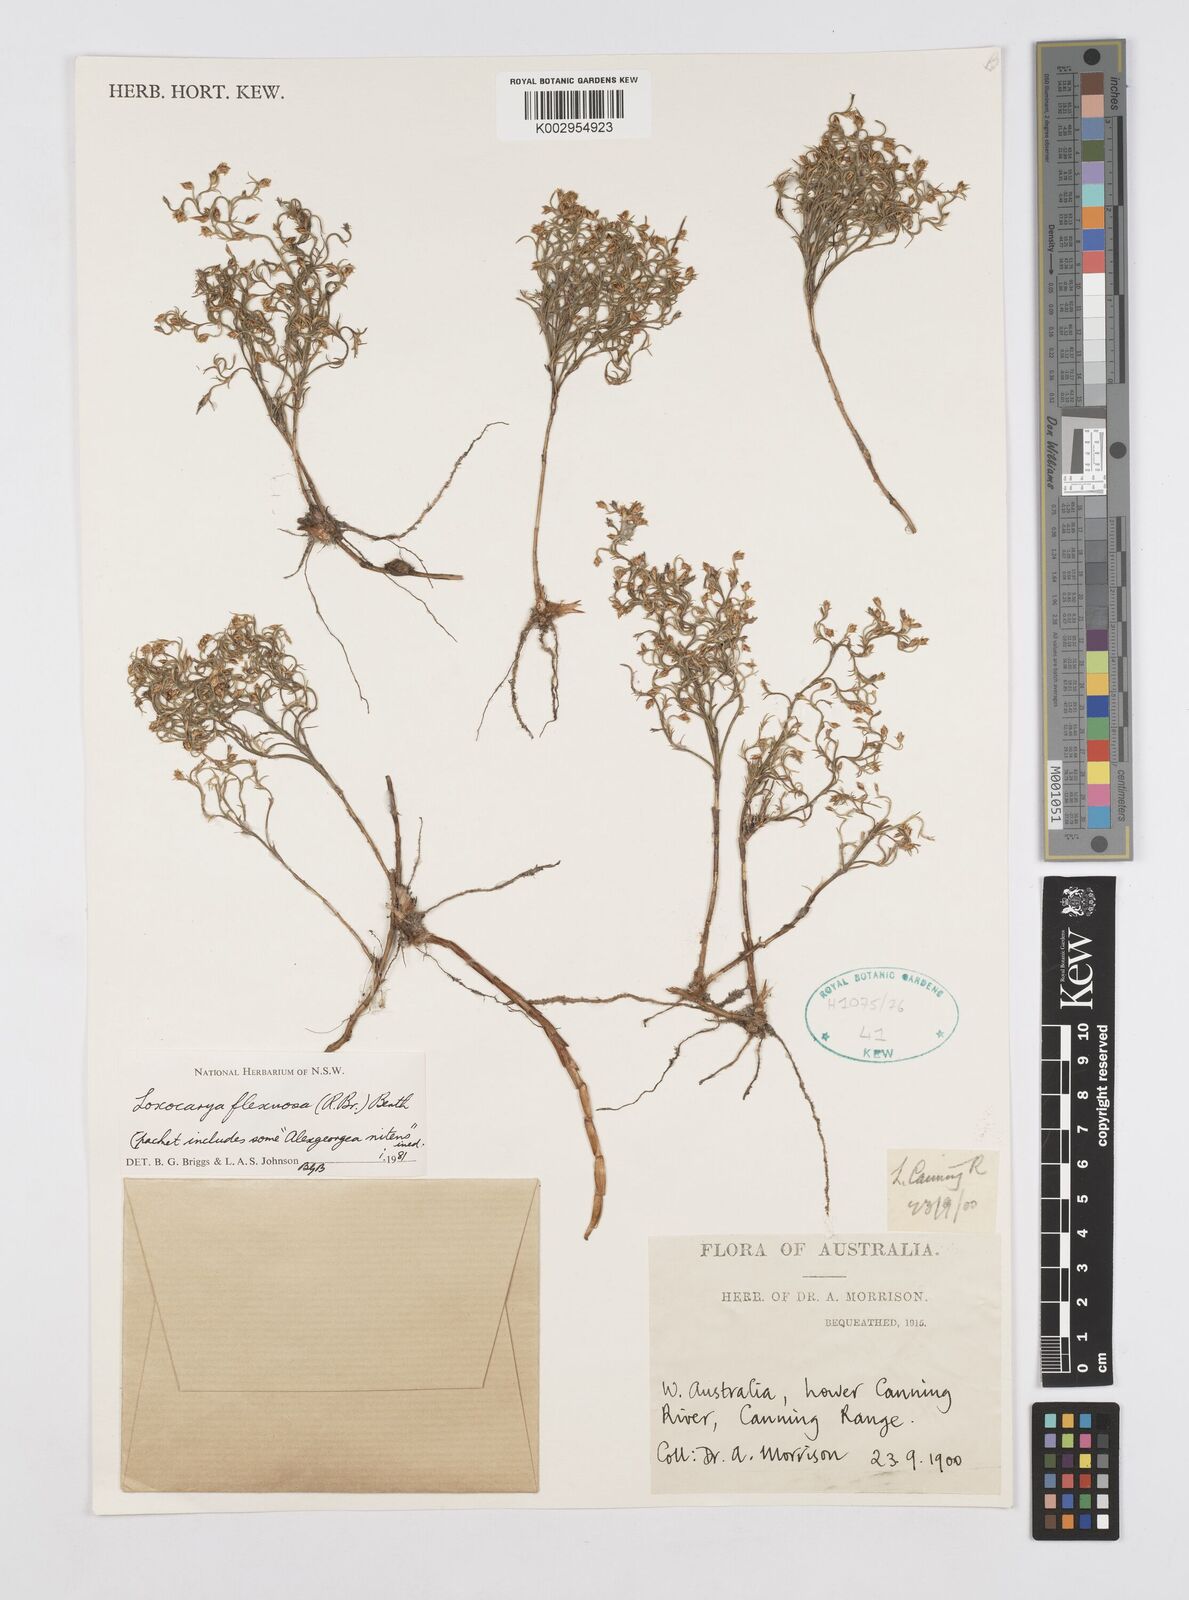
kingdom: Plantae
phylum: Tracheophyta
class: Liliopsida
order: Poales
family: Restionaceae
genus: Desmocladus
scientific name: Desmocladus flexuosus
